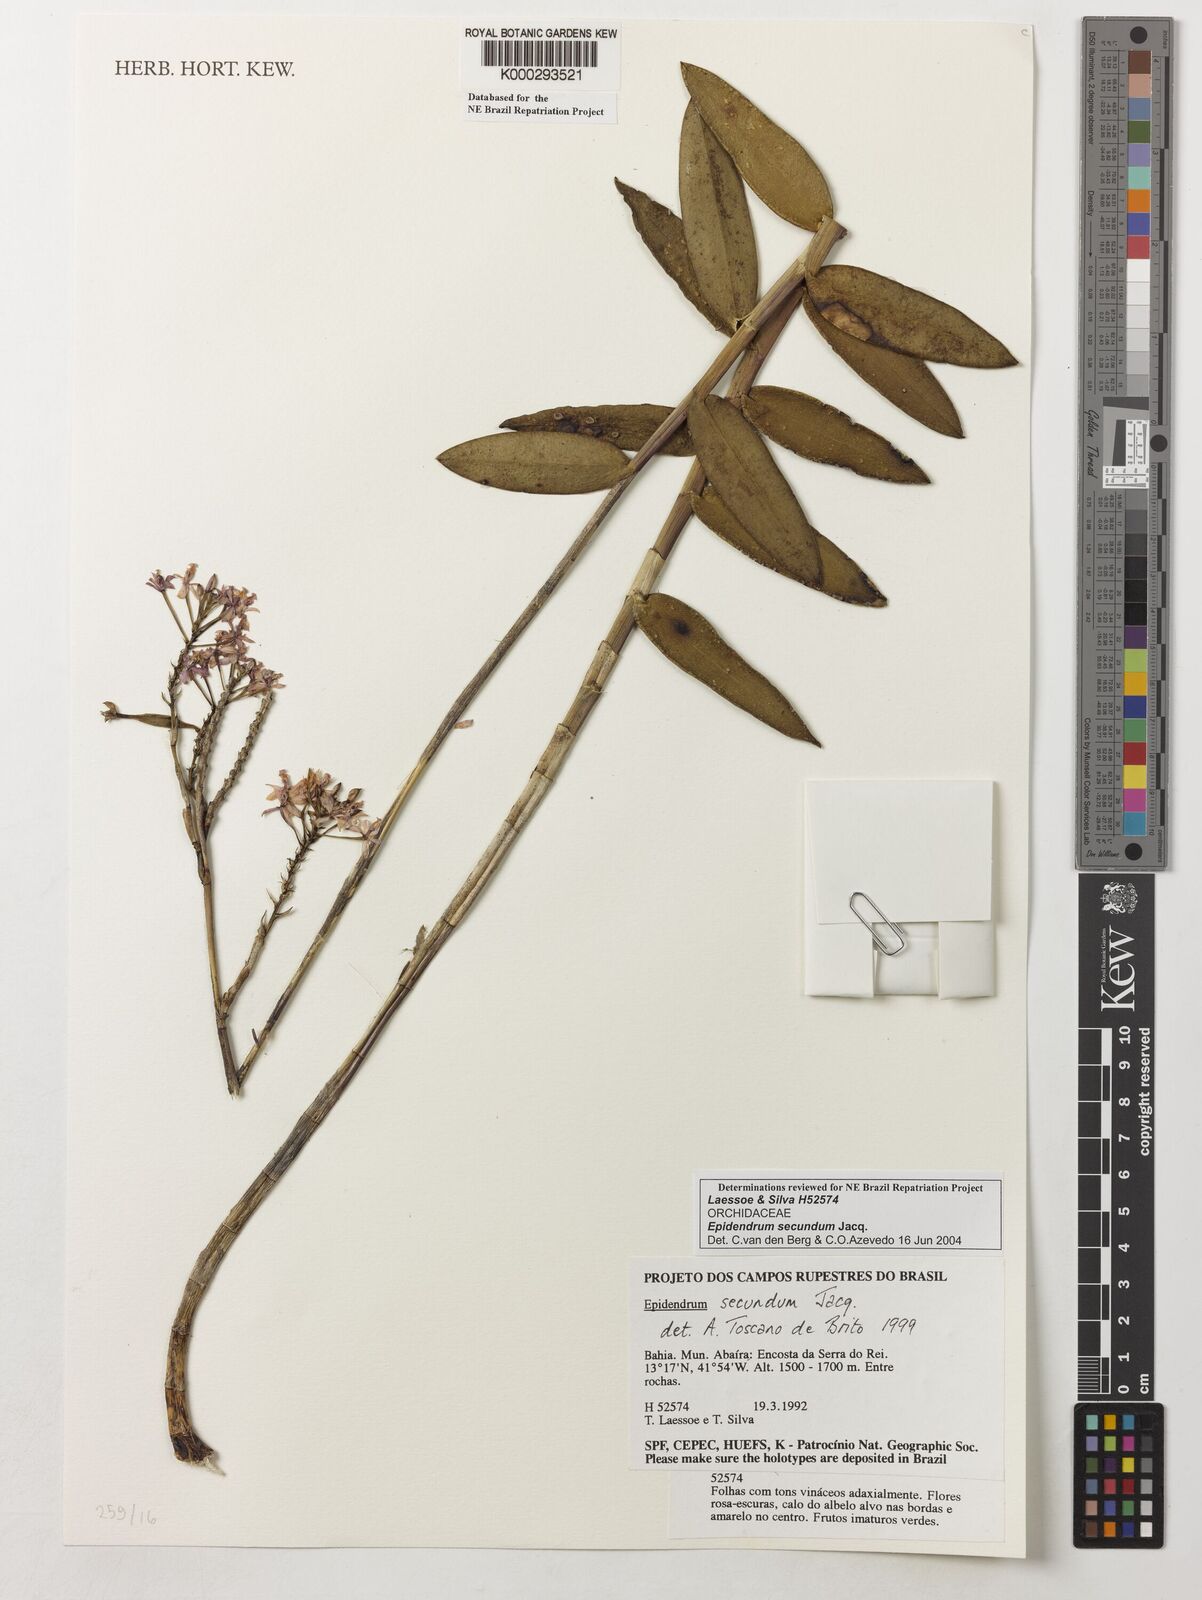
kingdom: Plantae
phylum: Tracheophyta
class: Liliopsida
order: Asparagales
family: Orchidaceae
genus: Epidendrum
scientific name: Epidendrum secundum
